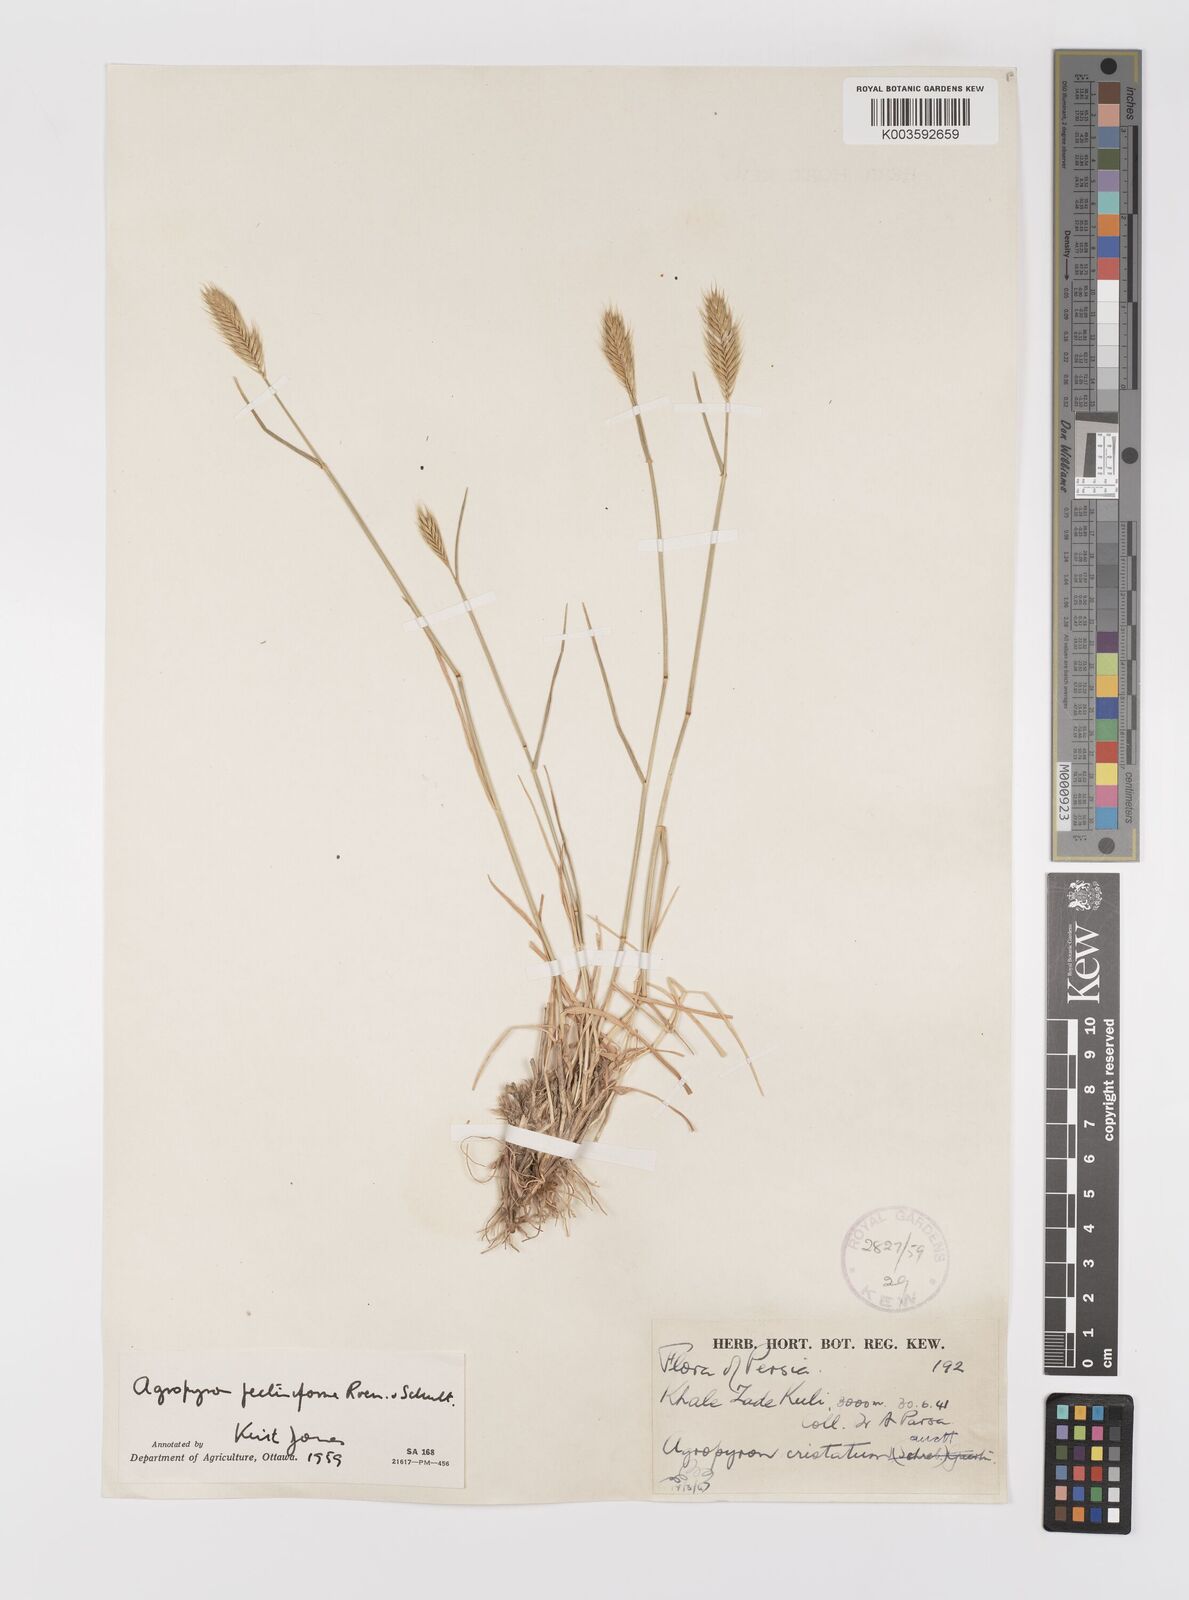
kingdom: Plantae
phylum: Tracheophyta
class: Liliopsida
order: Poales
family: Poaceae
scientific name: Poaceae
